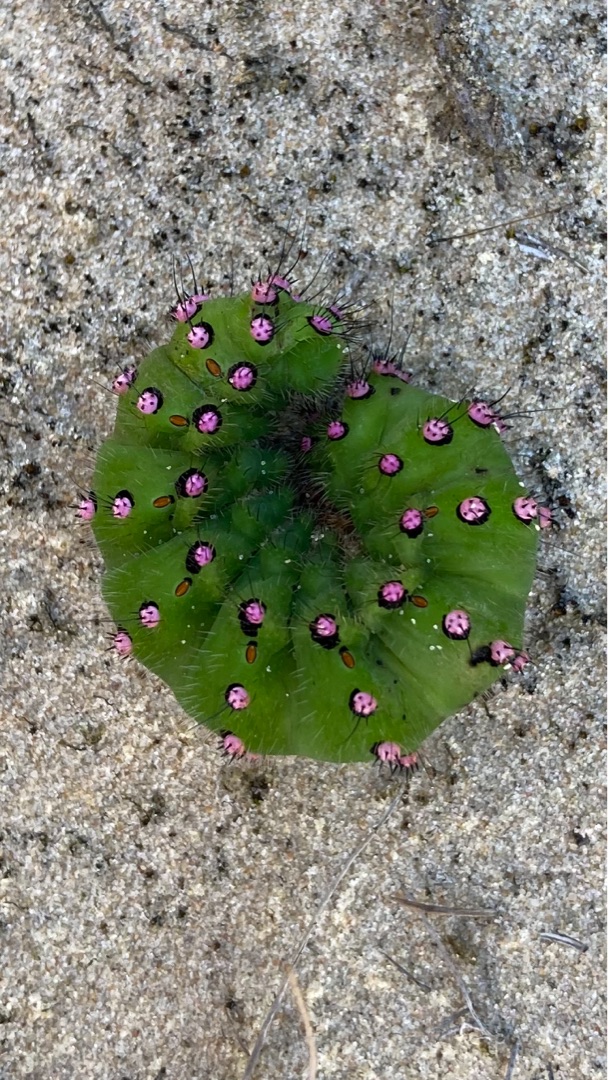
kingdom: Animalia
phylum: Arthropoda
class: Insecta
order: Lepidoptera
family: Saturniidae
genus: Saturnia
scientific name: Saturnia pavonia
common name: Lille natpåfugleøje
